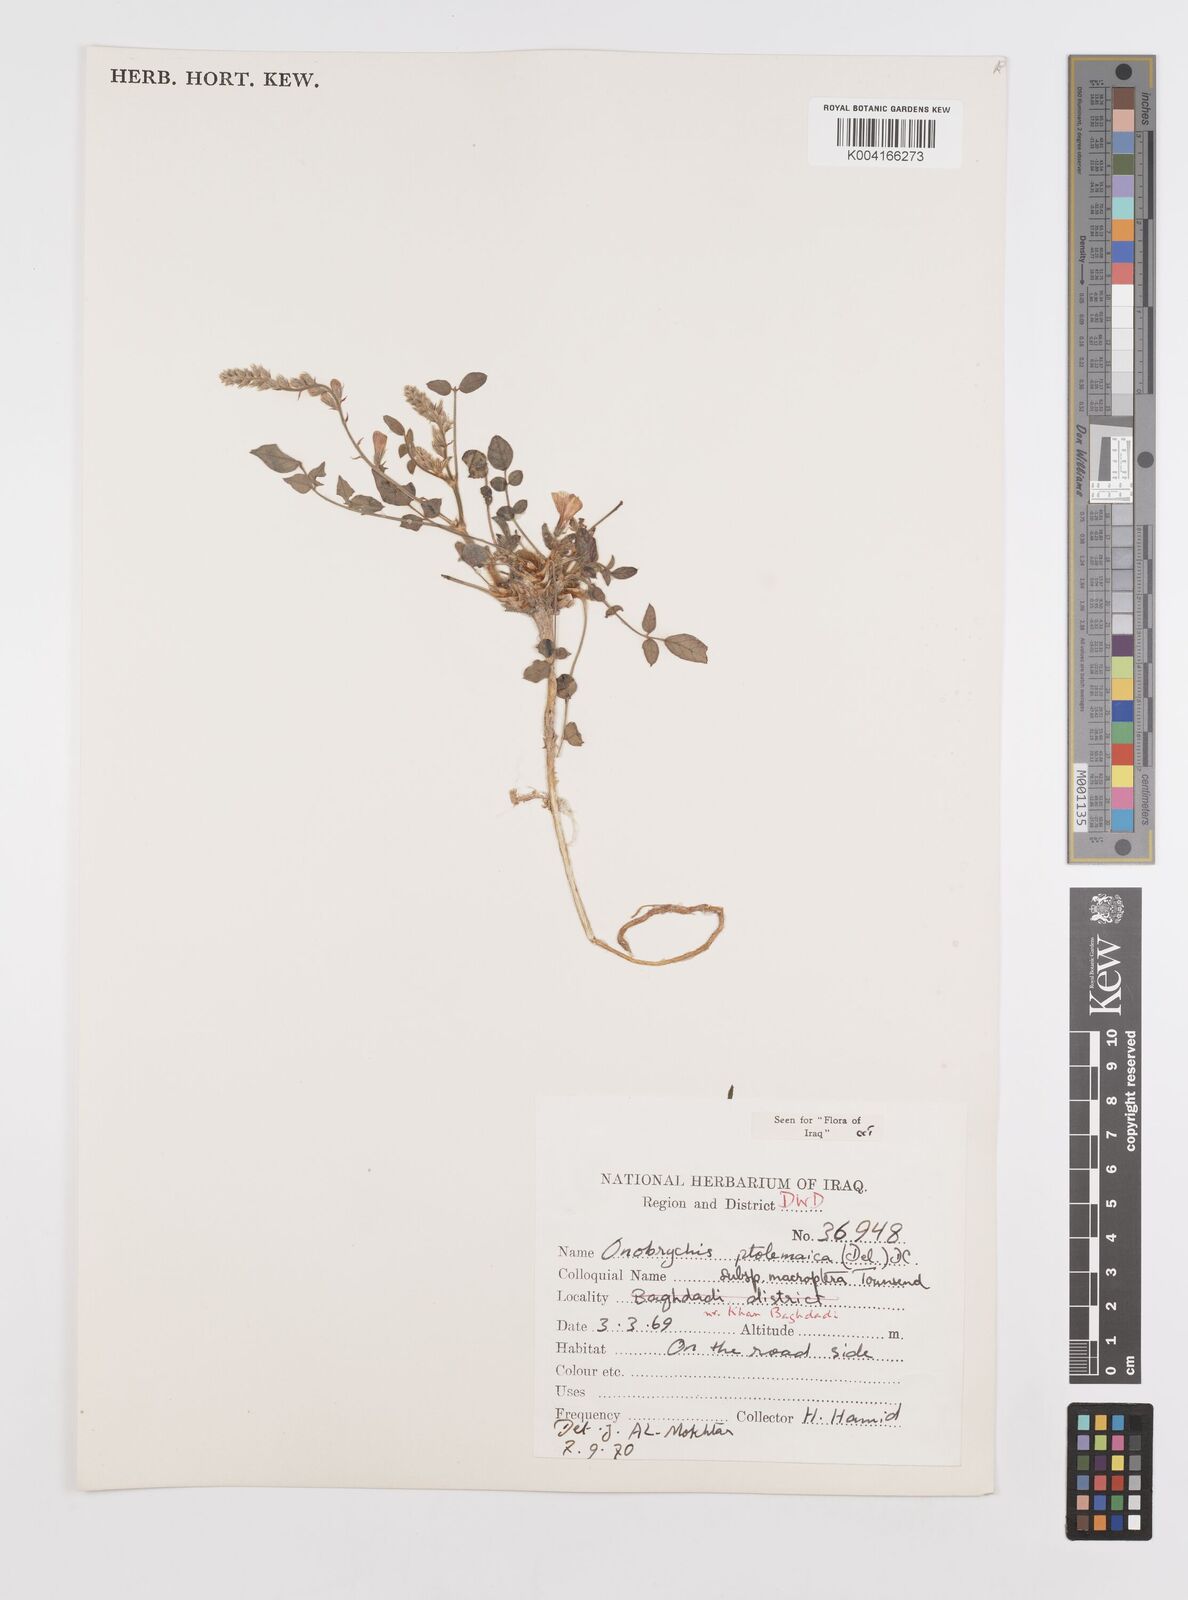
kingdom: Plantae
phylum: Tracheophyta
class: Magnoliopsida
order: Fabales
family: Fabaceae
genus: Onobrychis
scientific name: Onobrychis ptolemaica
